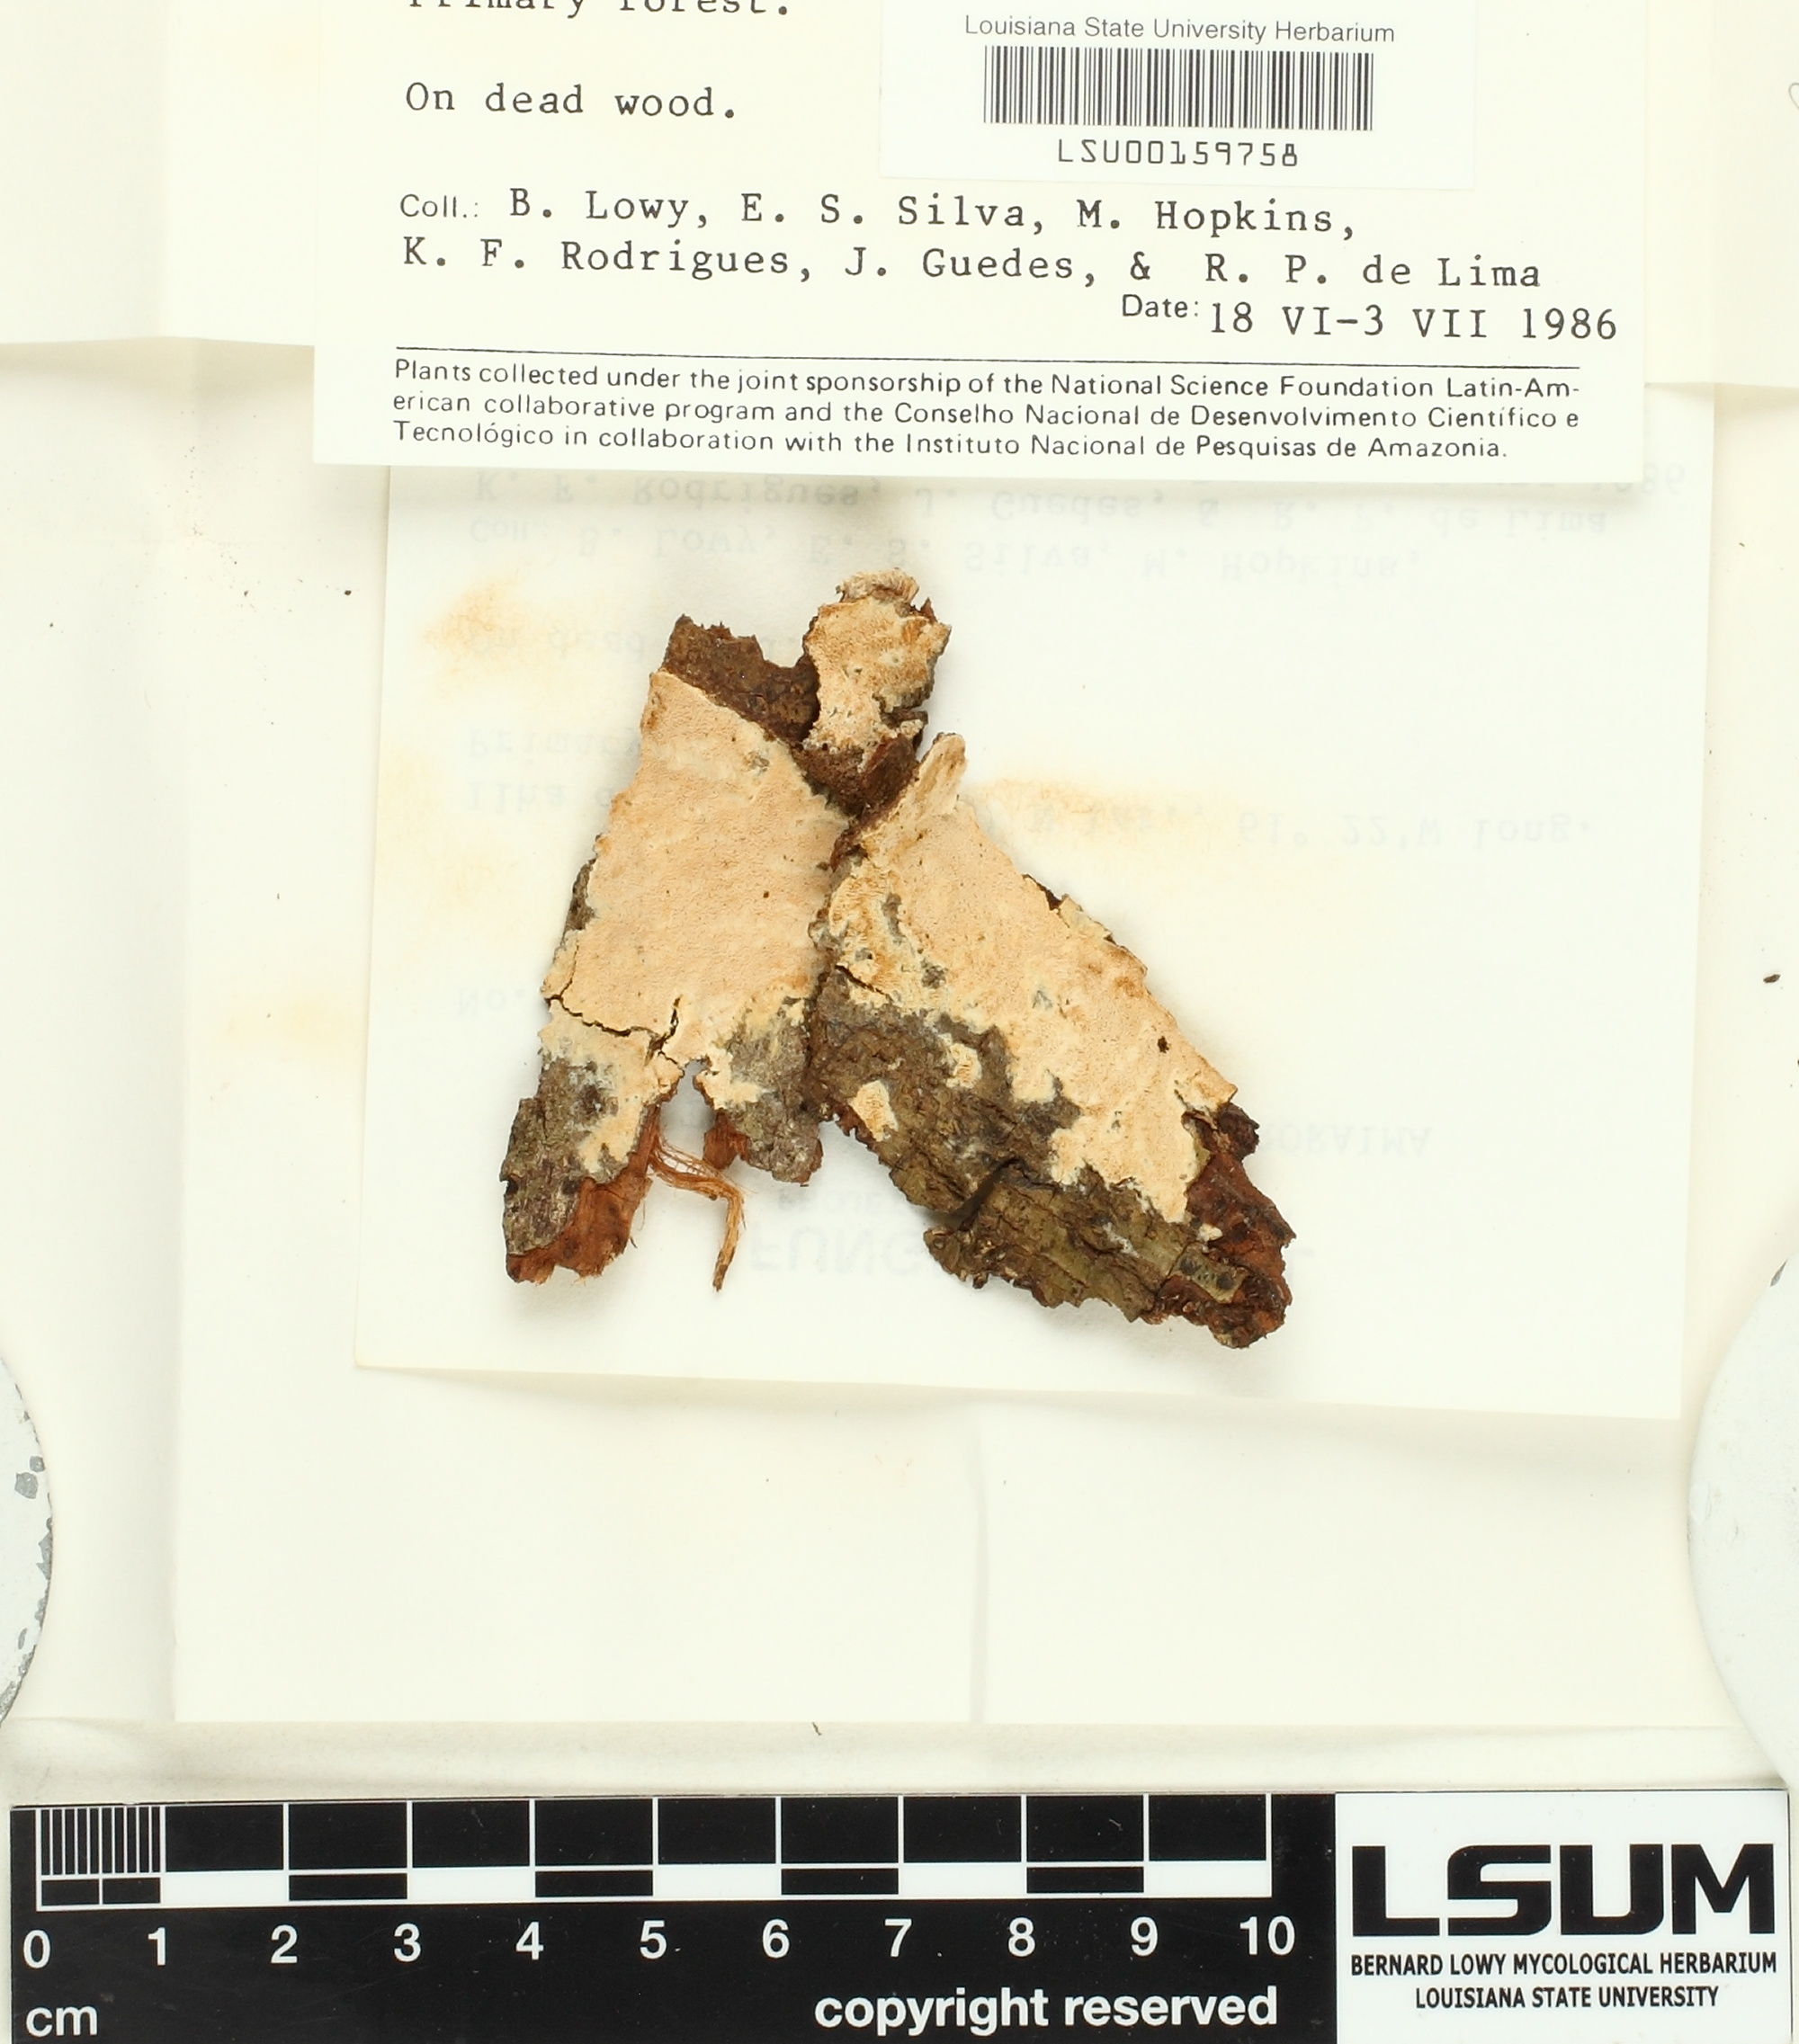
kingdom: Fungi
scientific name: Fungi
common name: Fungi
